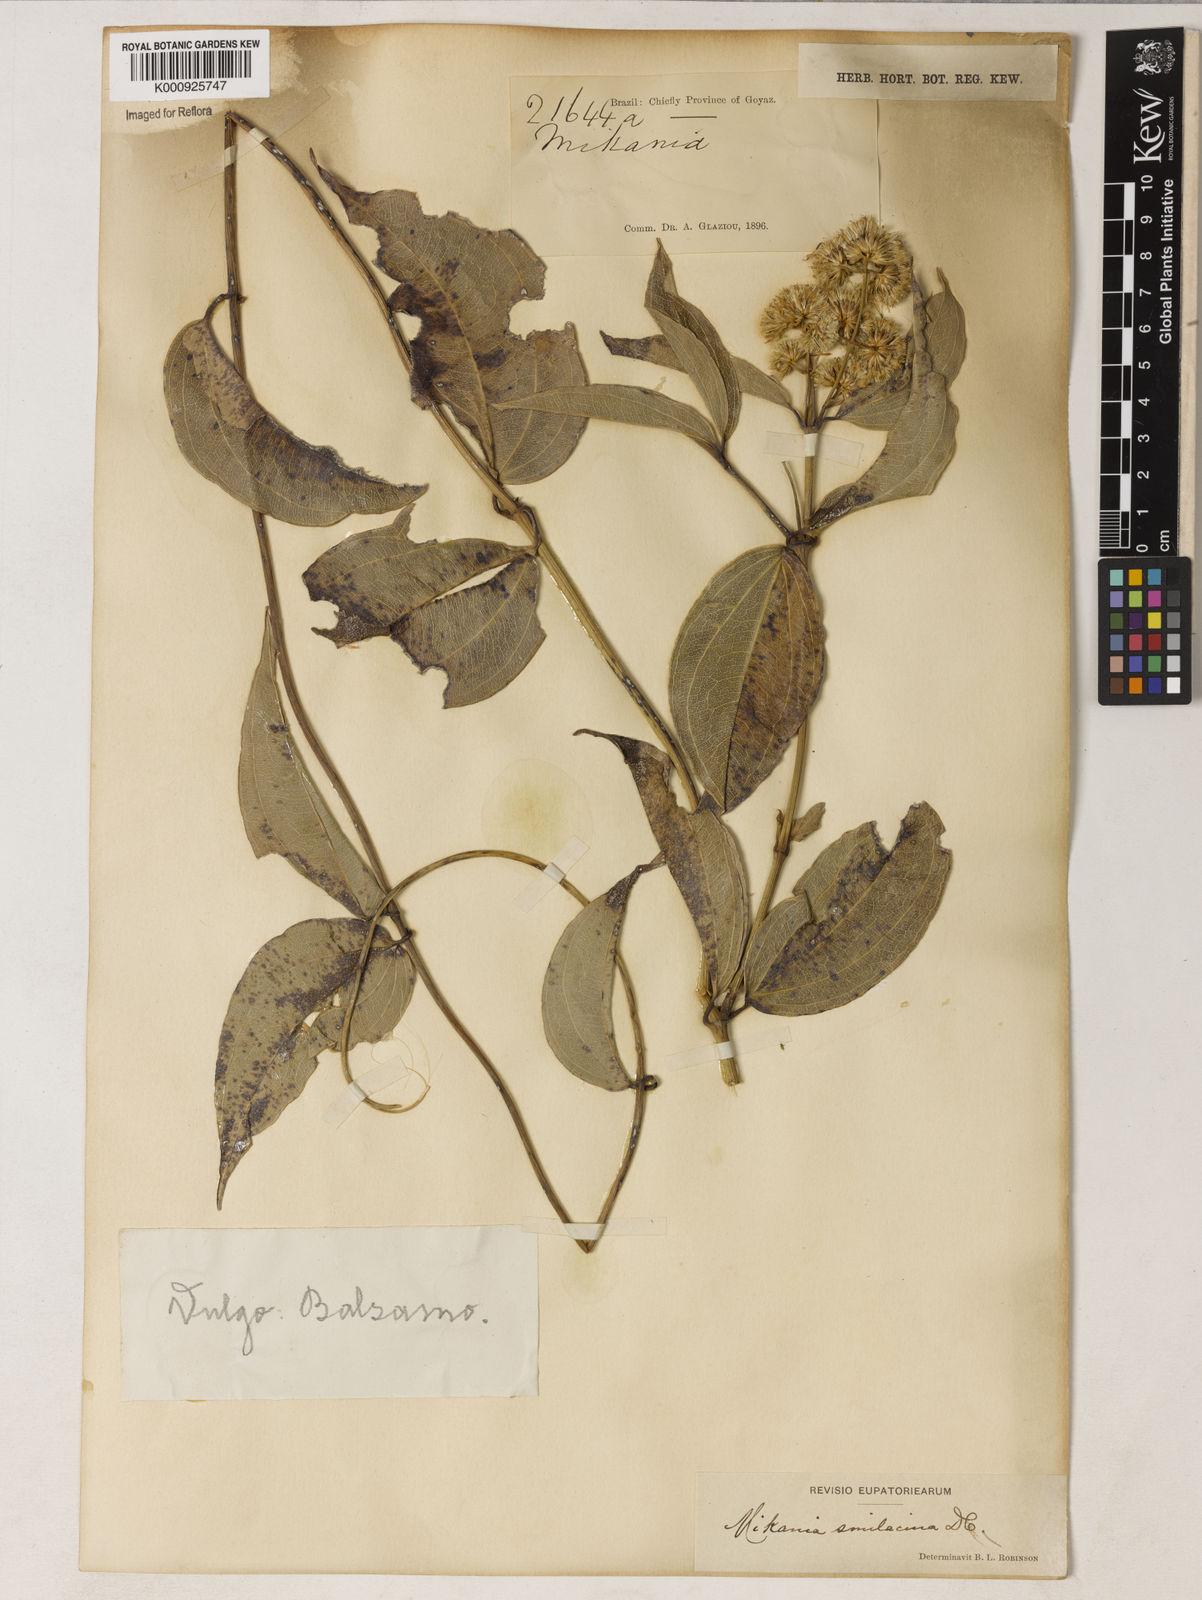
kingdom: Plantae
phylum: Tracheophyta
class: Magnoliopsida
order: Asterales
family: Asteraceae
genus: Mikania
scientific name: Mikania smilacina
